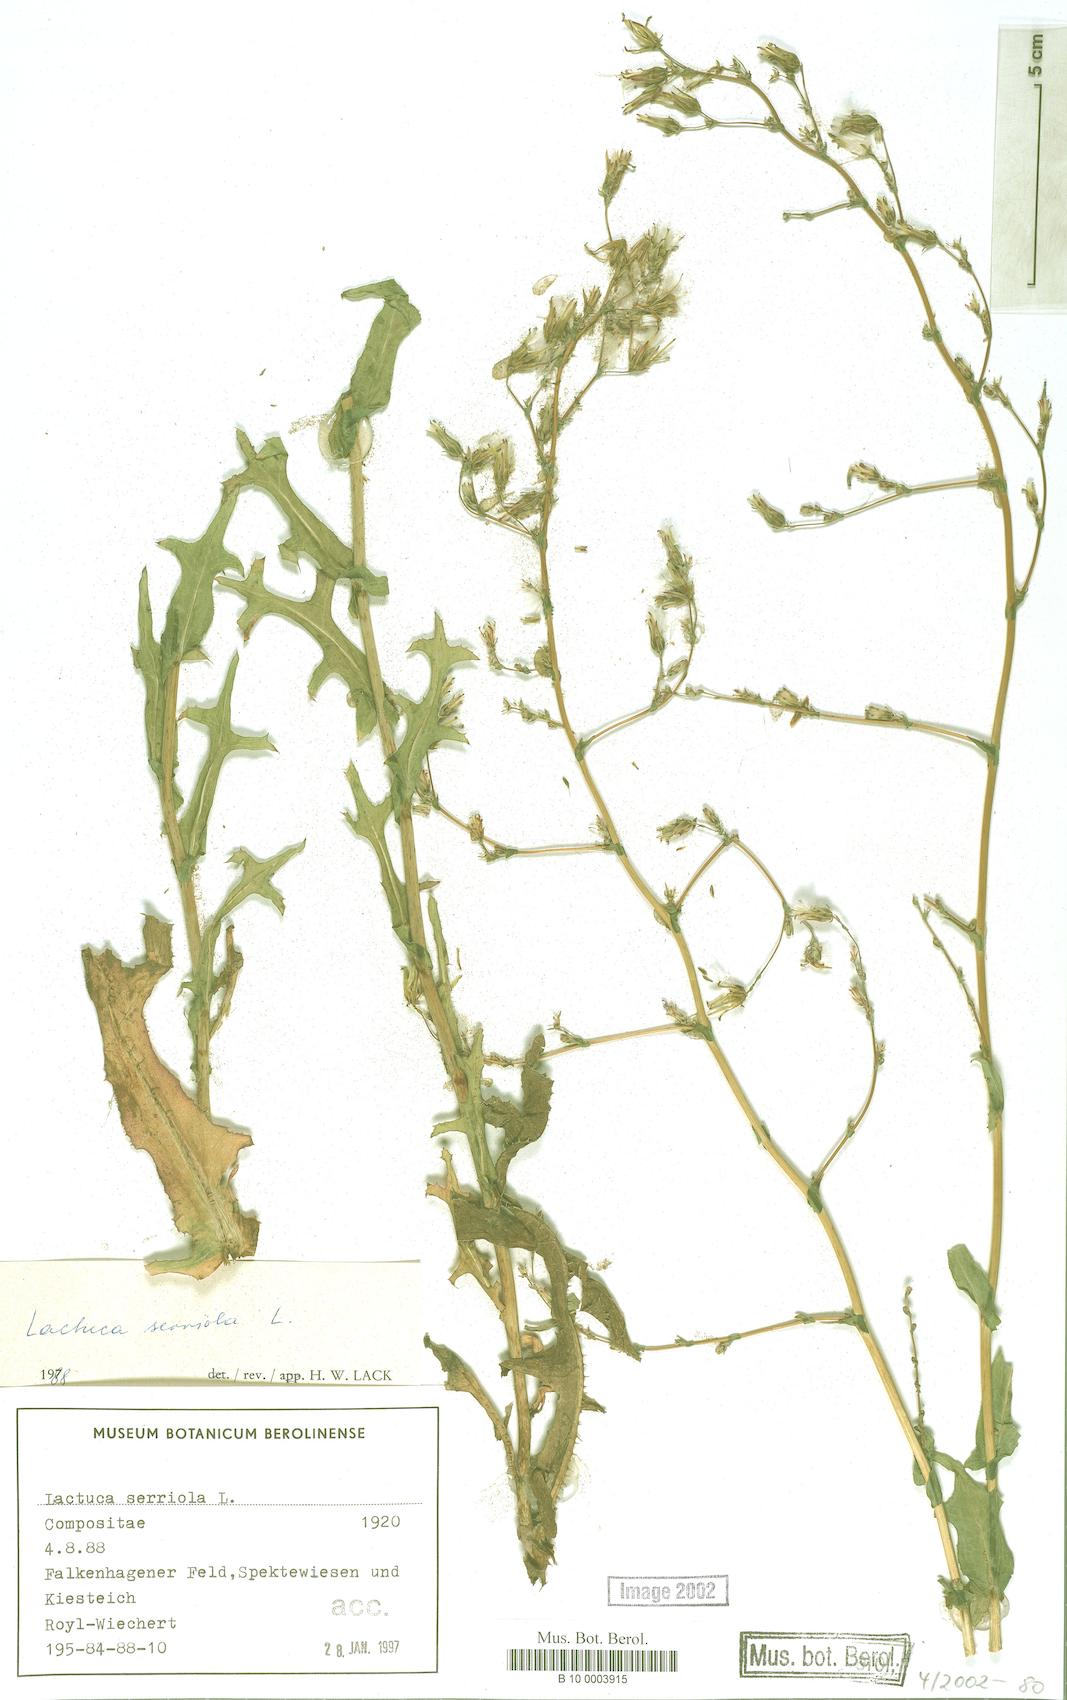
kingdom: Plantae
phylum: Tracheophyta
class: Magnoliopsida
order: Asterales
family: Asteraceae
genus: Lactuca
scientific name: Lactuca serriola
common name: Prickly lettuce
